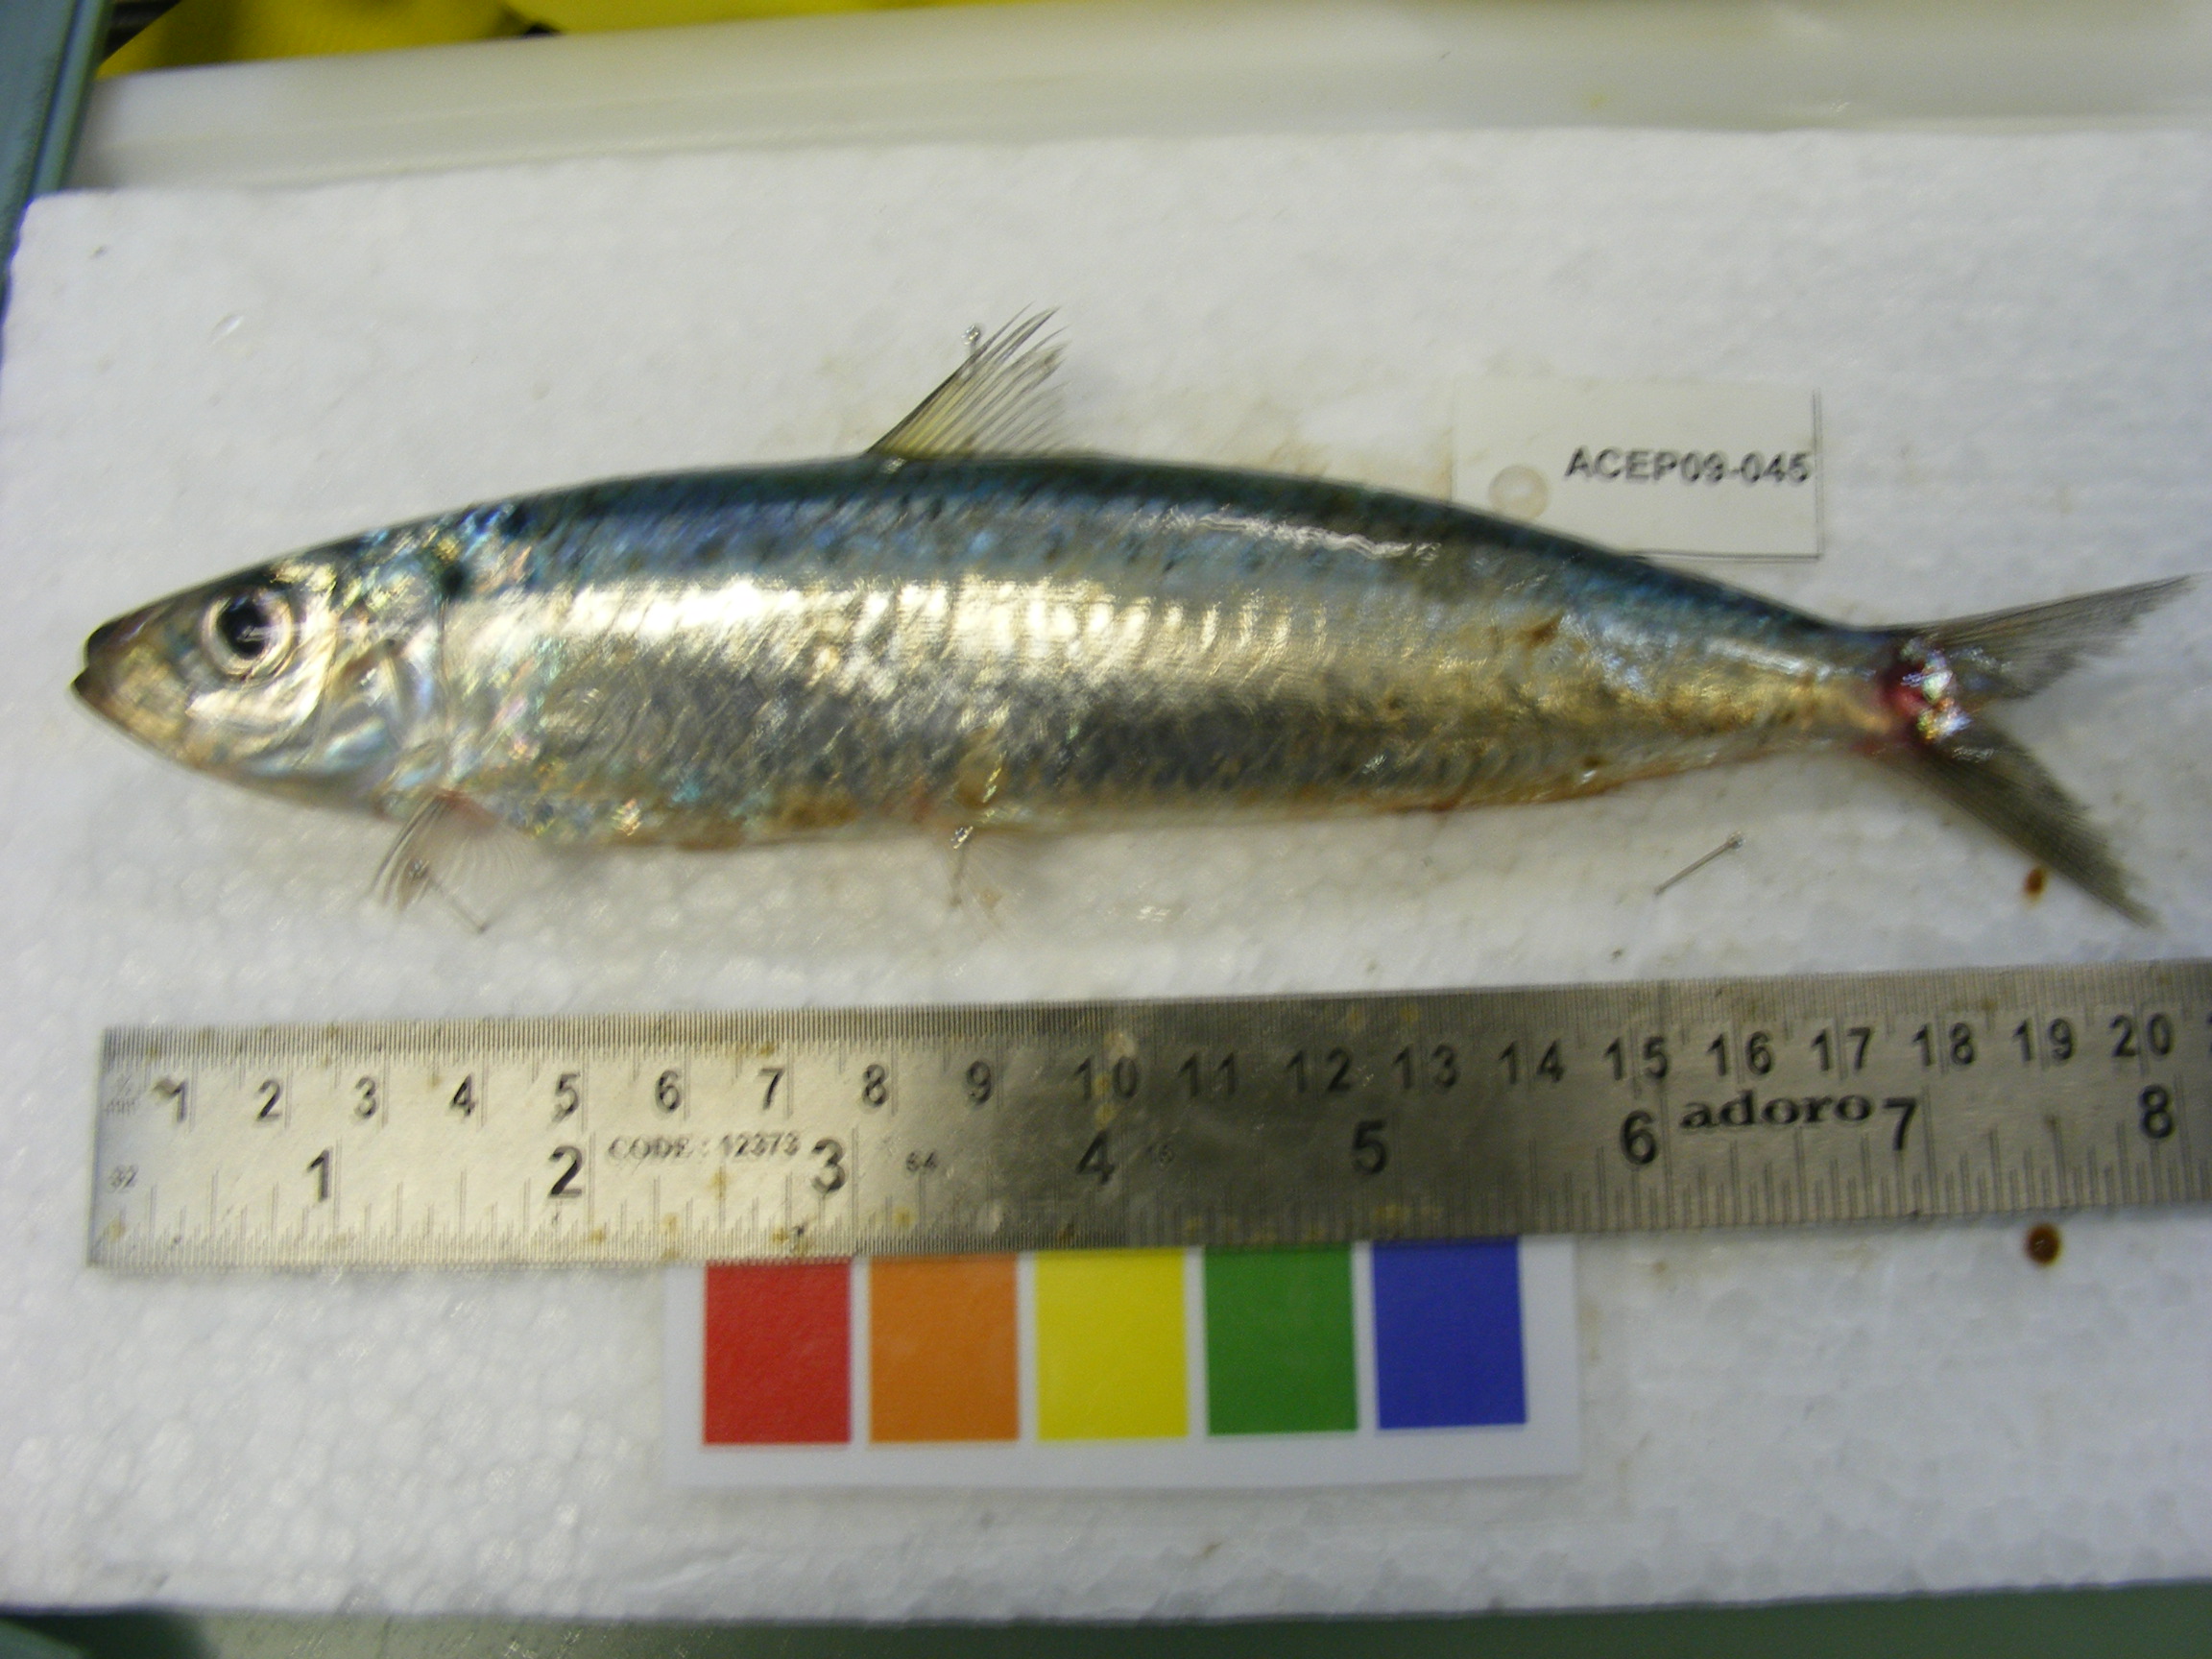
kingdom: Animalia
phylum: Chordata
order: Clupeiformes
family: Clupeidae
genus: Sardinella
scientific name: Sardinella
